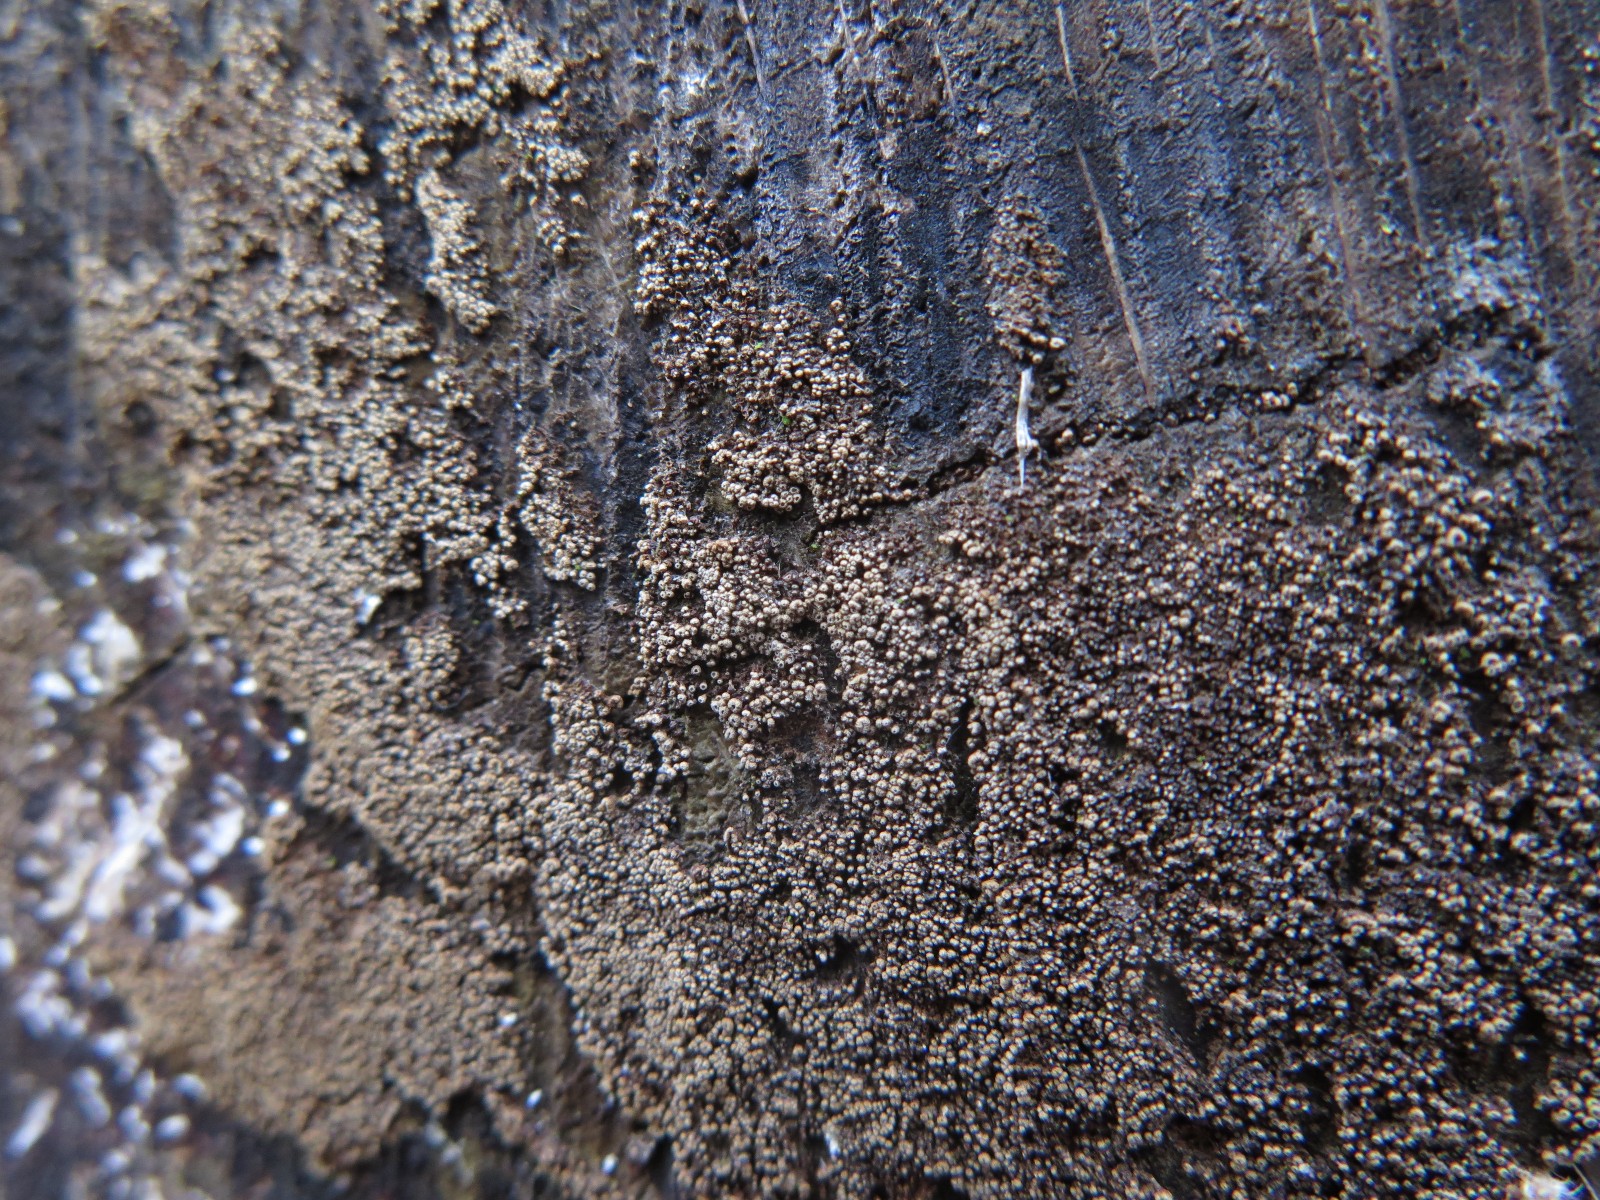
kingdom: Fungi
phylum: Basidiomycota
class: Agaricomycetes
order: Agaricales
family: Niaceae
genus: Merismodes
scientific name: Merismodes anomala
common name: almindelig læderskål
